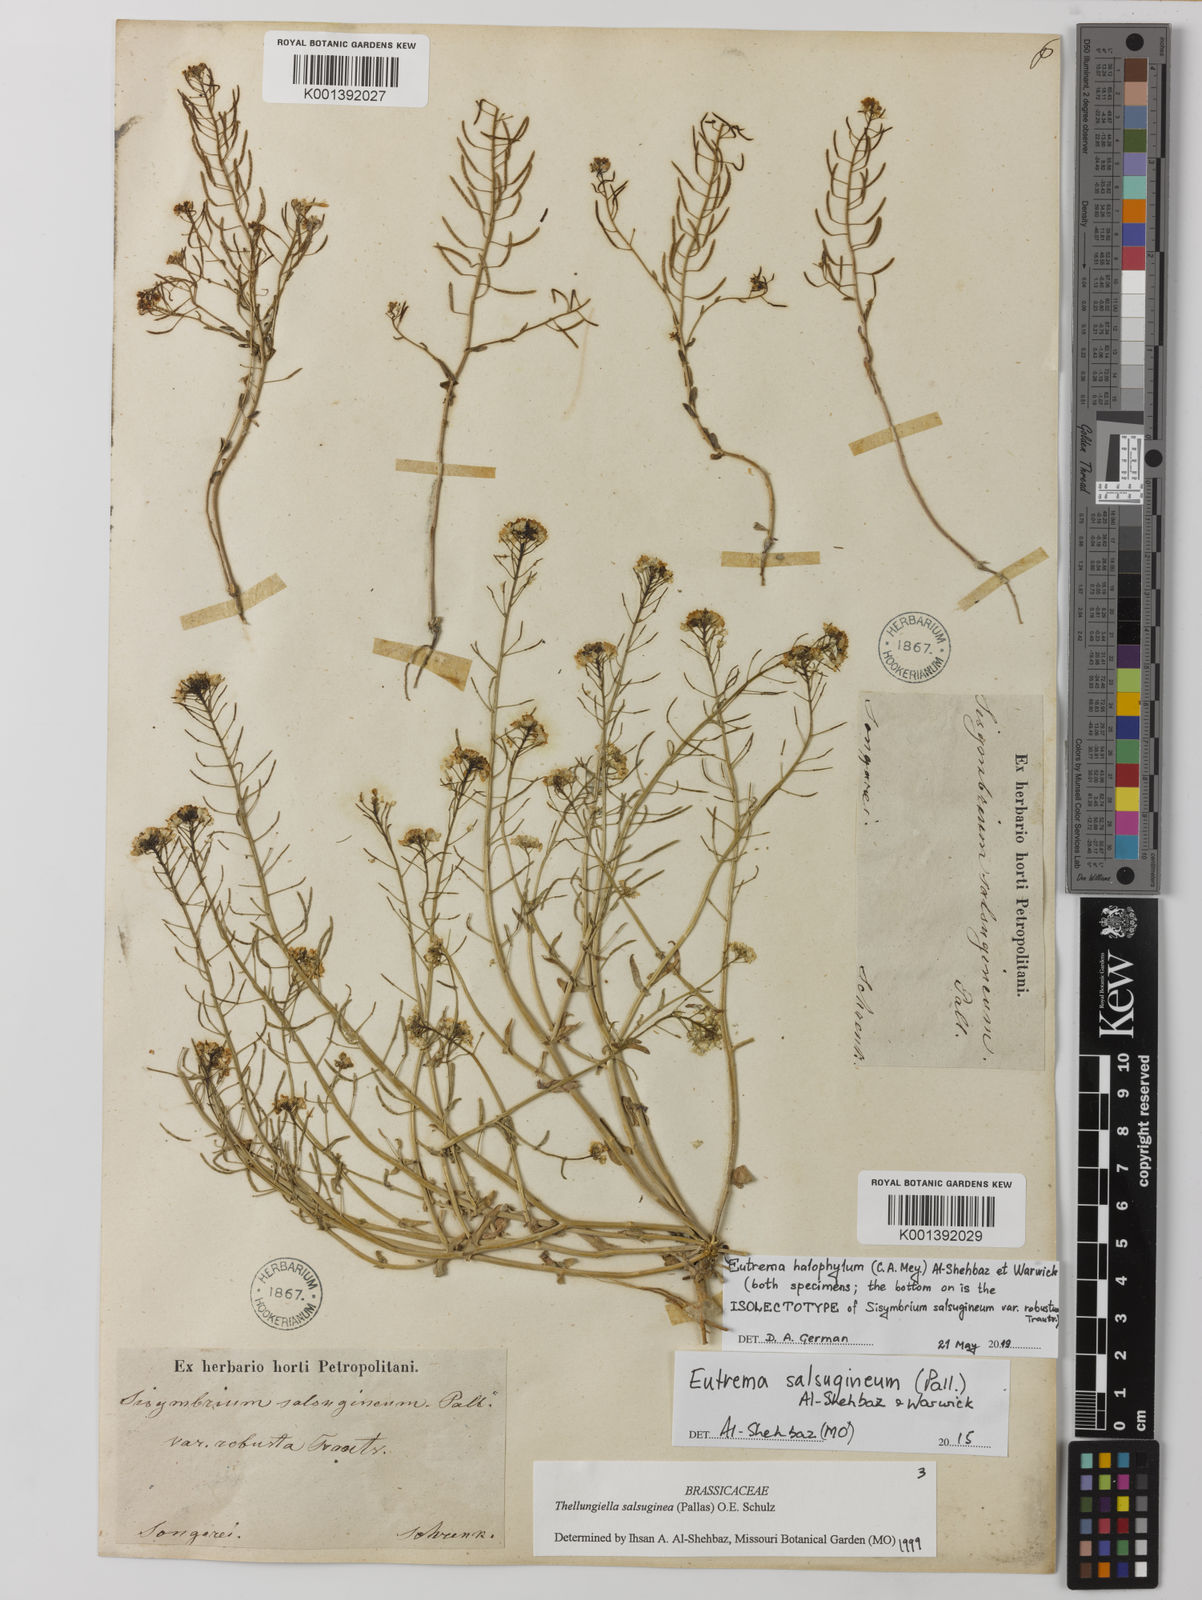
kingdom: Plantae
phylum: Tracheophyta
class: Magnoliopsida
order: Brassicales
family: Brassicaceae
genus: Eutrema
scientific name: Eutrema halophilum
